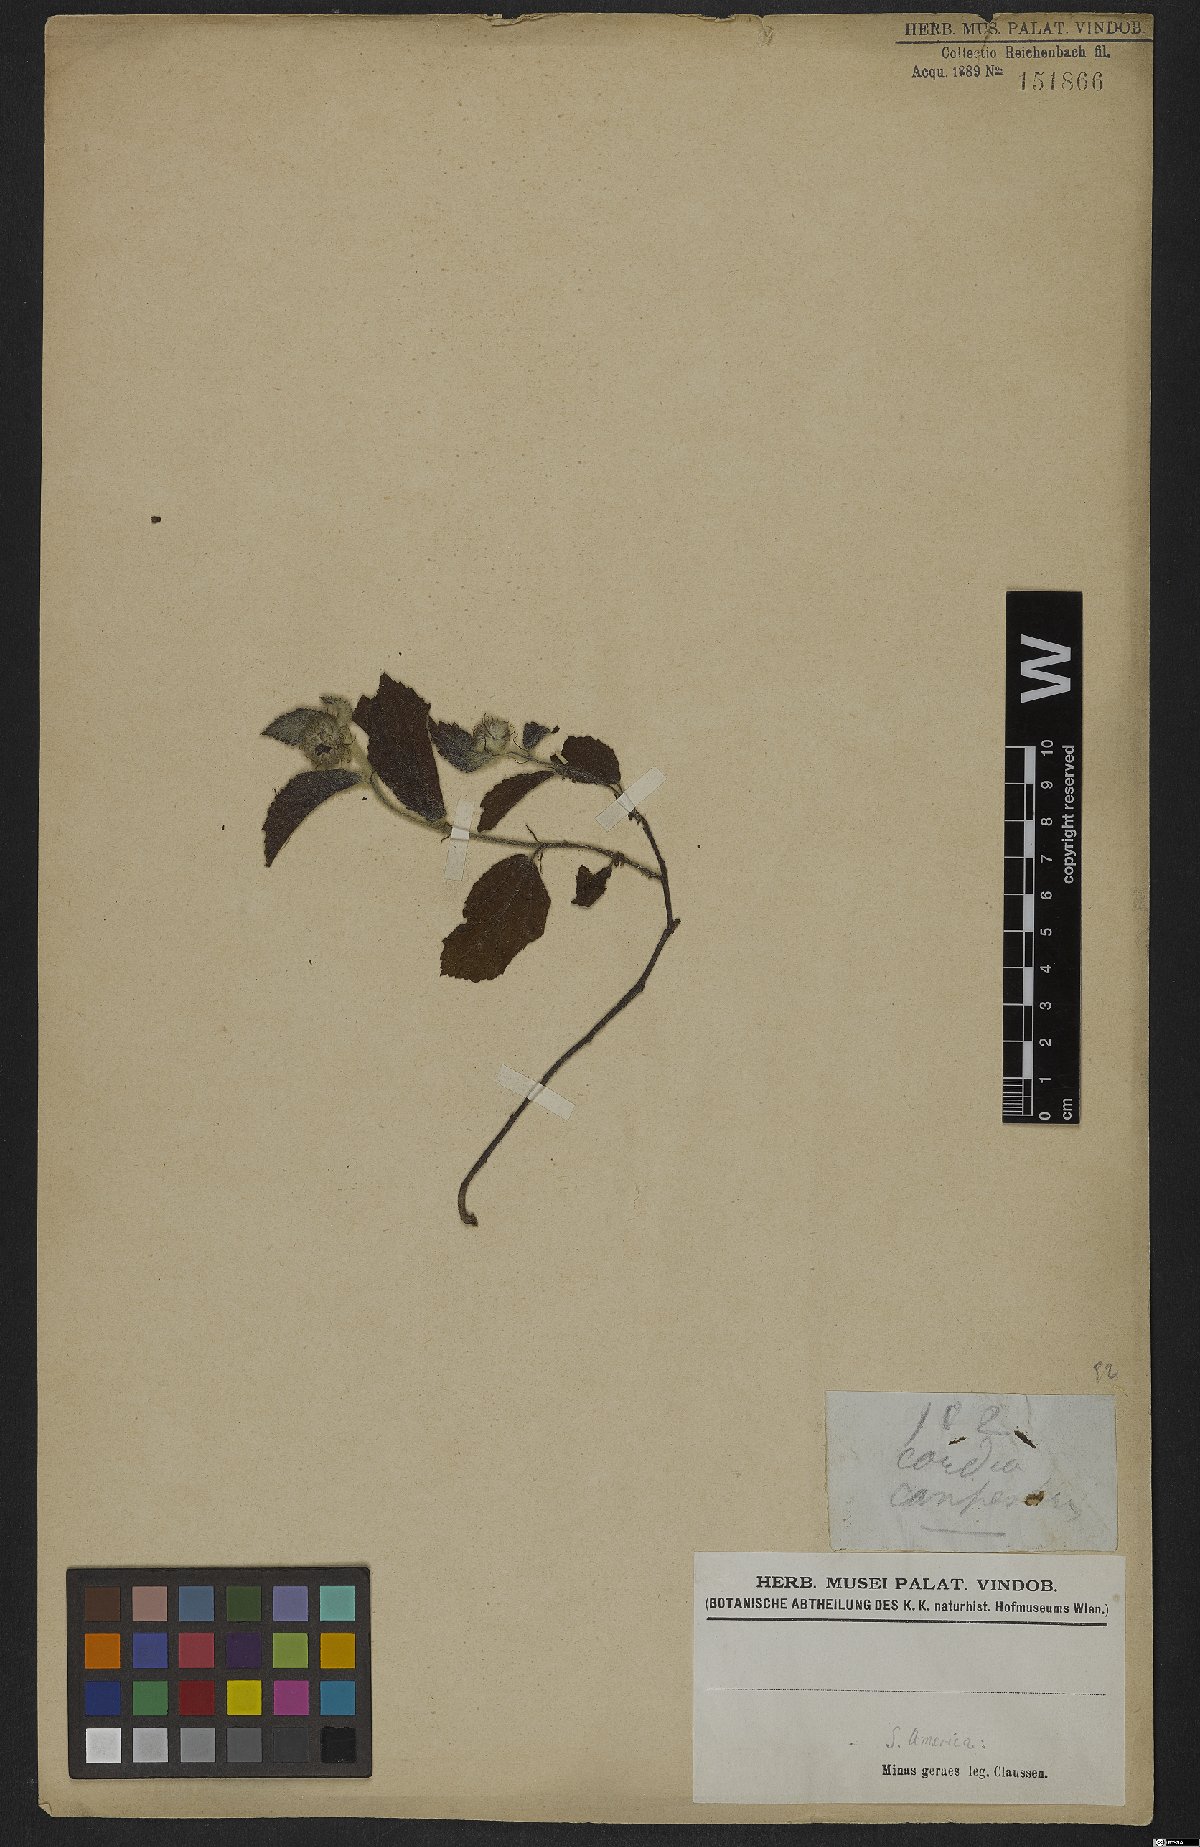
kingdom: Plantae
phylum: Tracheophyta
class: Magnoliopsida
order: Boraginales
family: Cordiaceae
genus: Cordia
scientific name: Cordia
